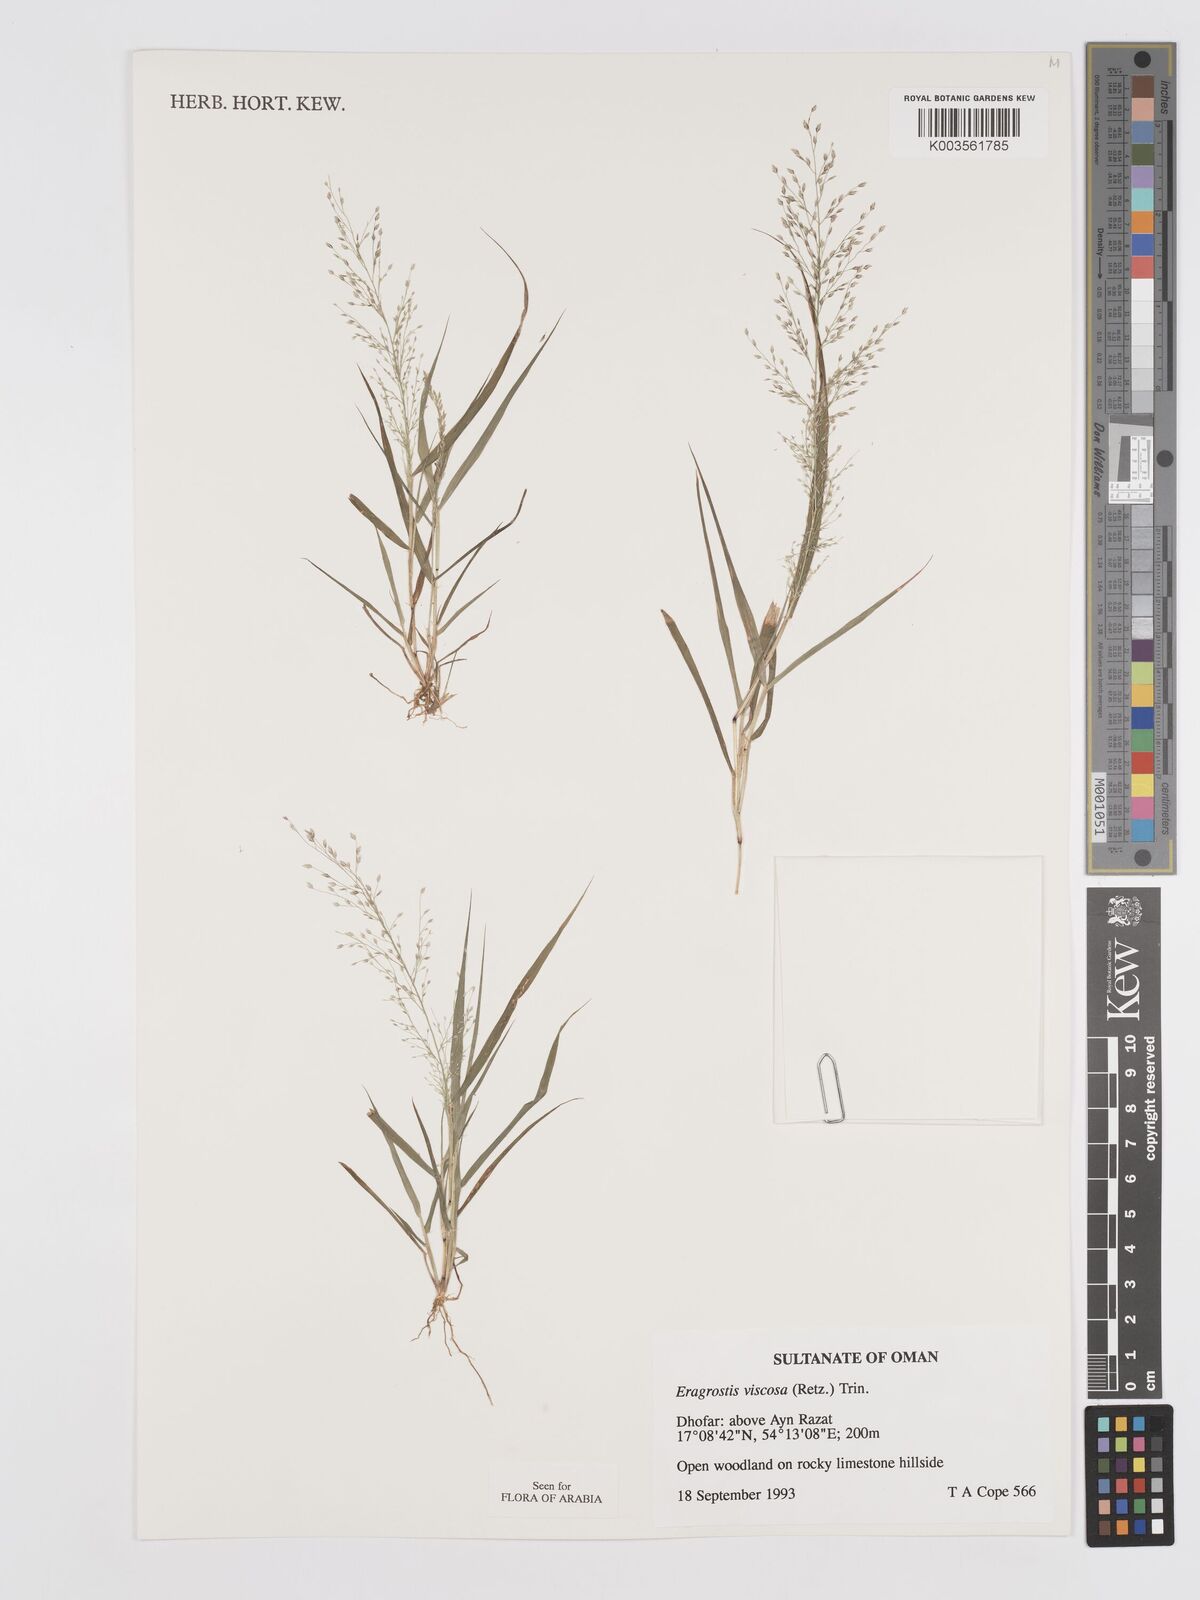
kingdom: Plantae
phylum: Tracheophyta
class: Liliopsida
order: Poales
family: Poaceae
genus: Eragrostis
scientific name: Eragrostis viscosa
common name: Sticky love grass
